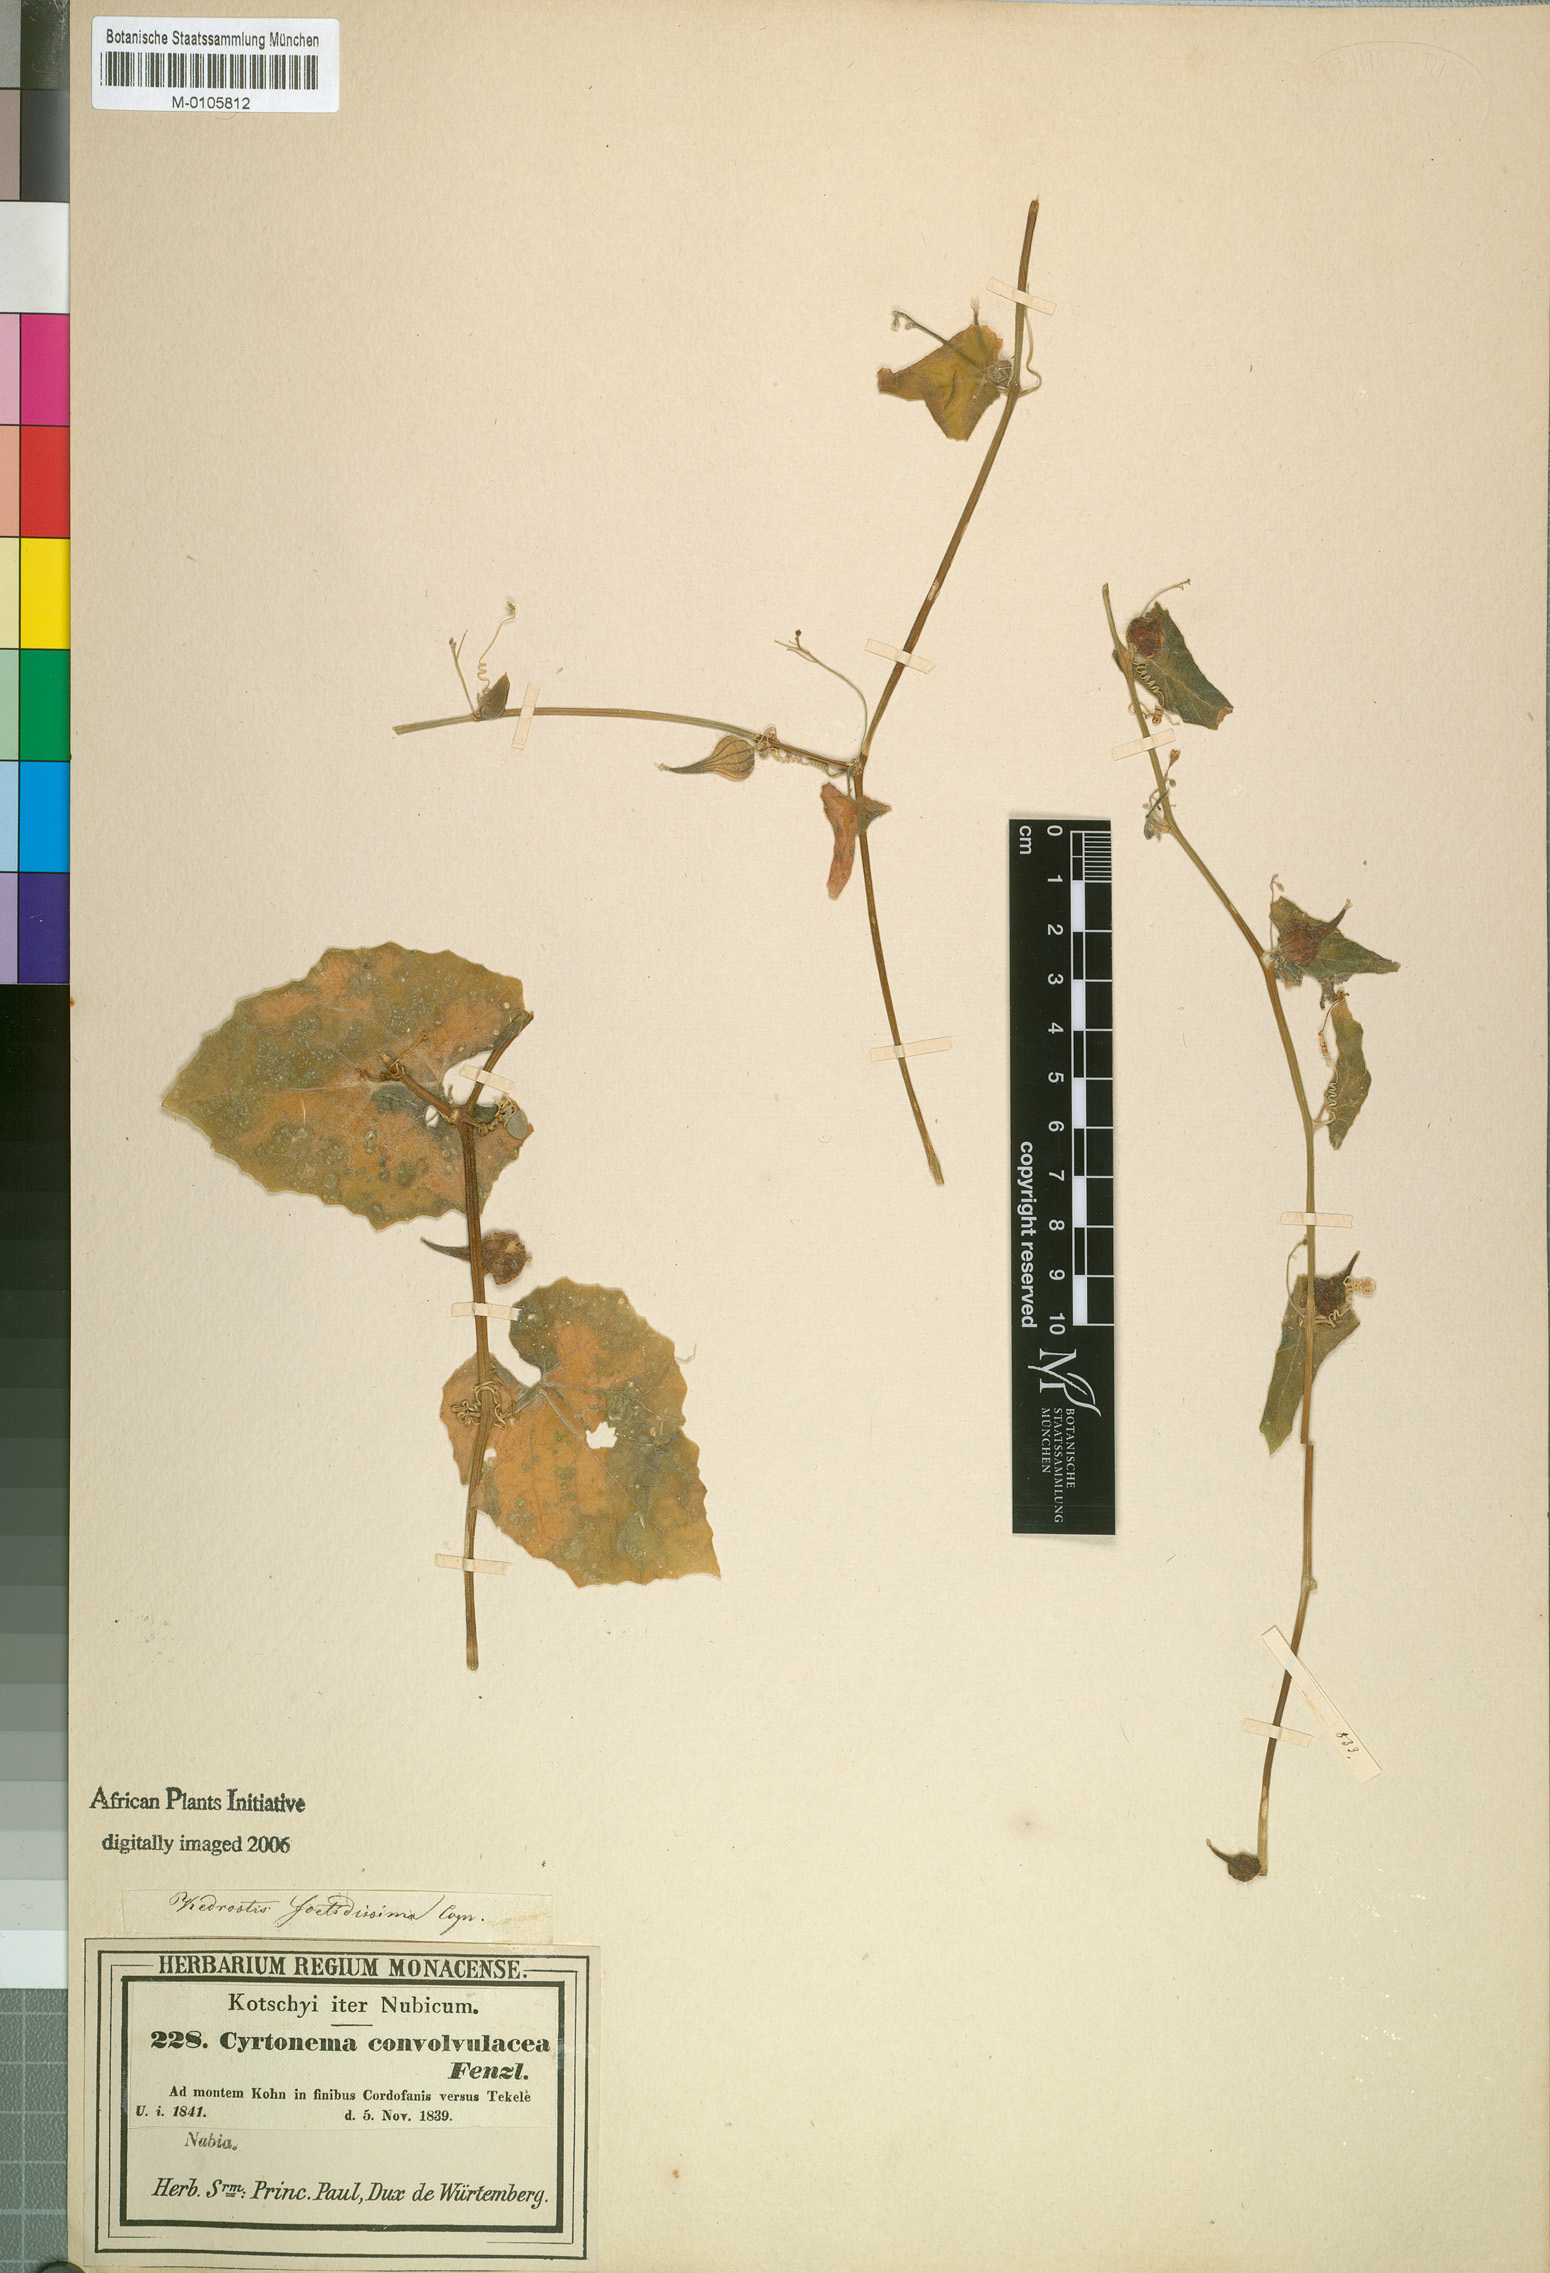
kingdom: Plantae
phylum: Tracheophyta
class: Magnoliopsida
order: Cucurbitales
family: Cucurbitaceae
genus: Kedrostis
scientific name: Kedrostis foetidissima
